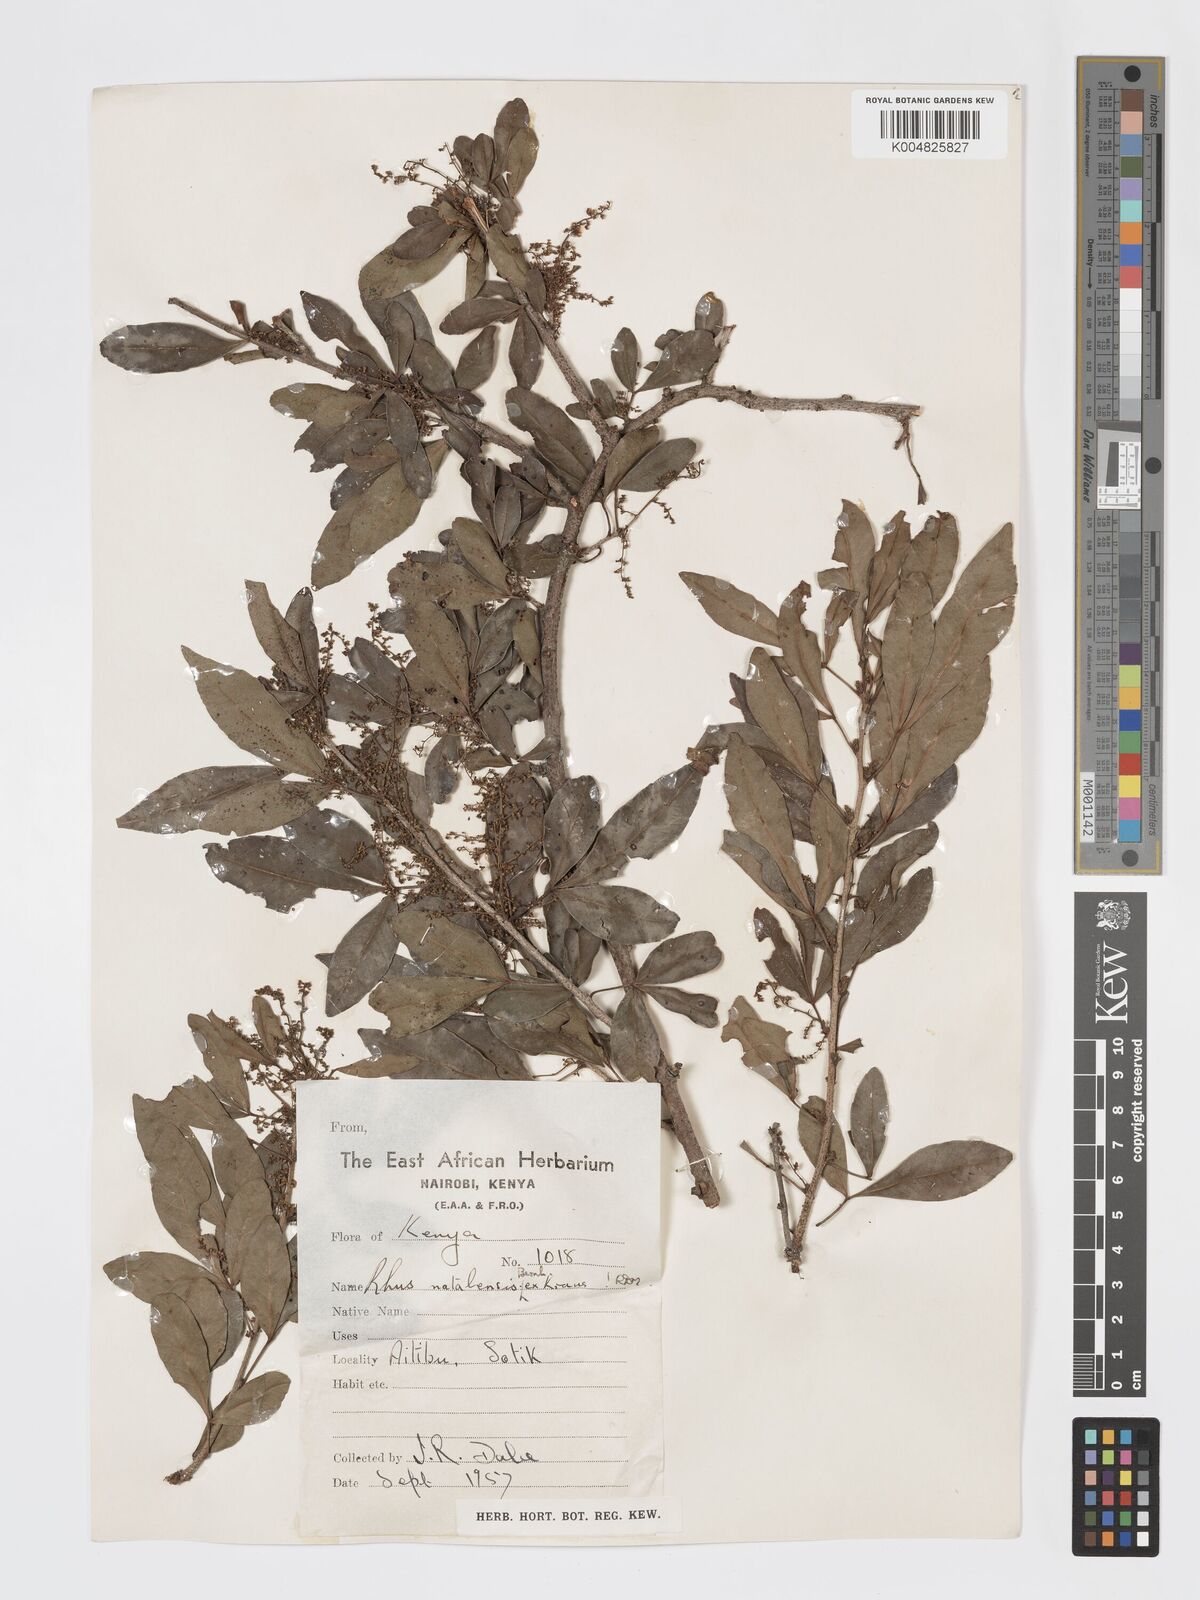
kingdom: Plantae
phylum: Tracheophyta
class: Magnoliopsida
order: Sapindales
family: Anacardiaceae
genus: Searsia
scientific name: Searsia natalensis
